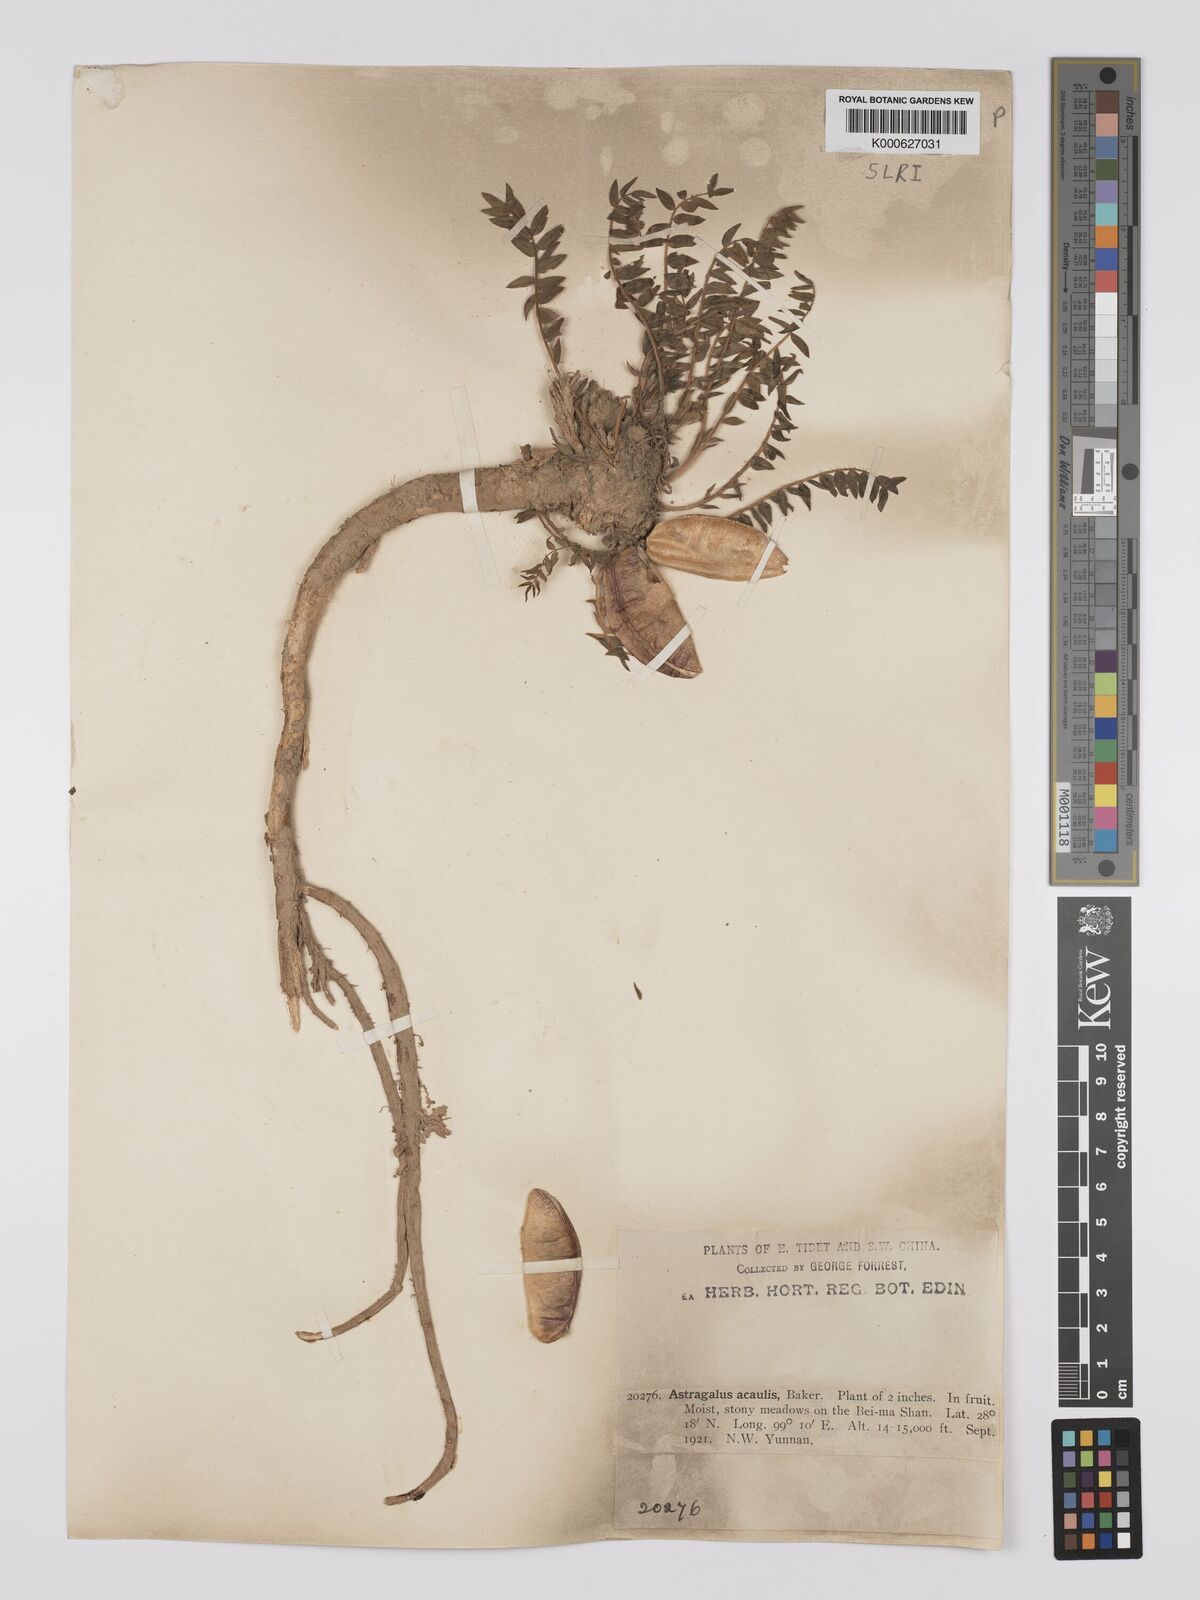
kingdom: Plantae
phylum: Tracheophyta
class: Magnoliopsida
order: Fabales
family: Fabaceae
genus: Astragalus
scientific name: Astragalus acaulis
